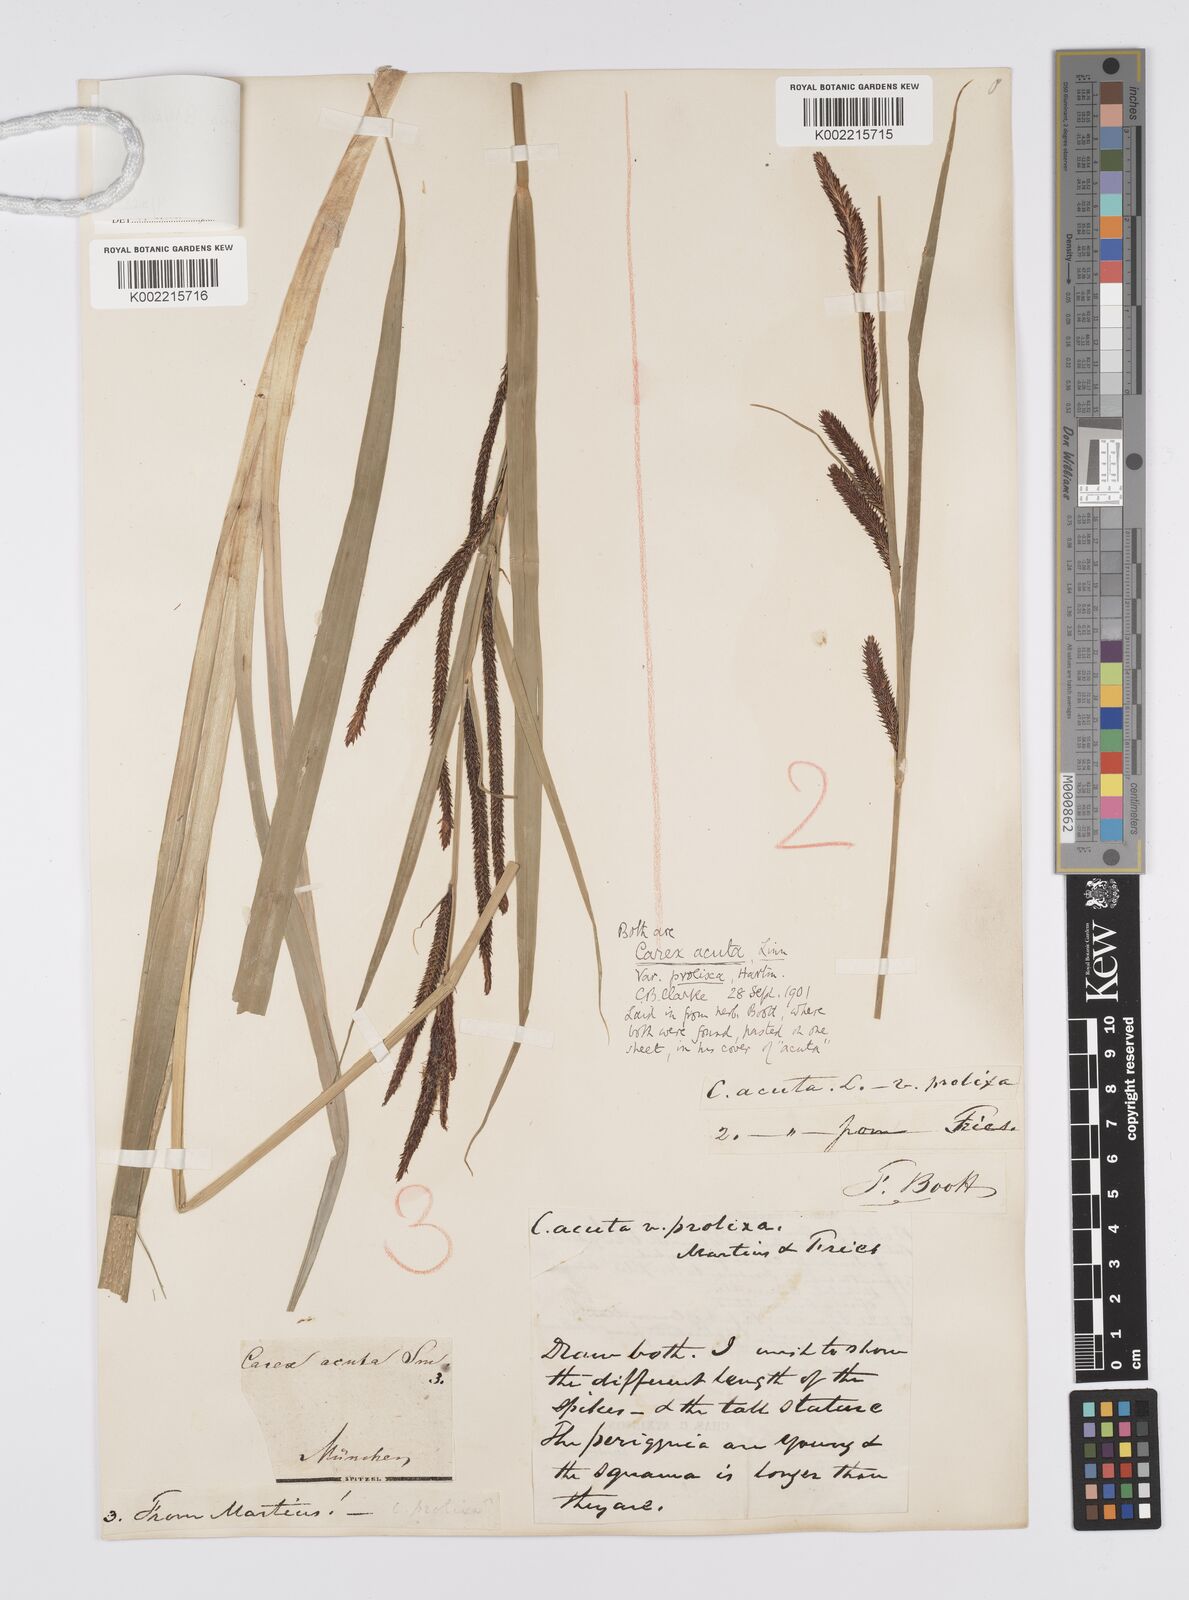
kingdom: Plantae
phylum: Tracheophyta
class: Liliopsida
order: Poales
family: Cyperaceae
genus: Carex
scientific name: Carex randalpina
